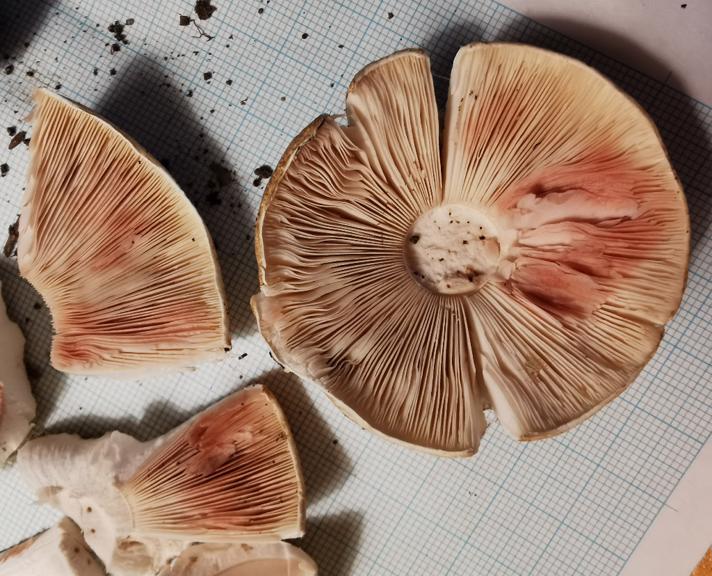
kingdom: Fungi
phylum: Basidiomycota
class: Agaricomycetes
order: Agaricales
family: Agaricaceae
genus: Agaricus
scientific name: Agaricus sylvaticus
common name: lille blod-champignon
